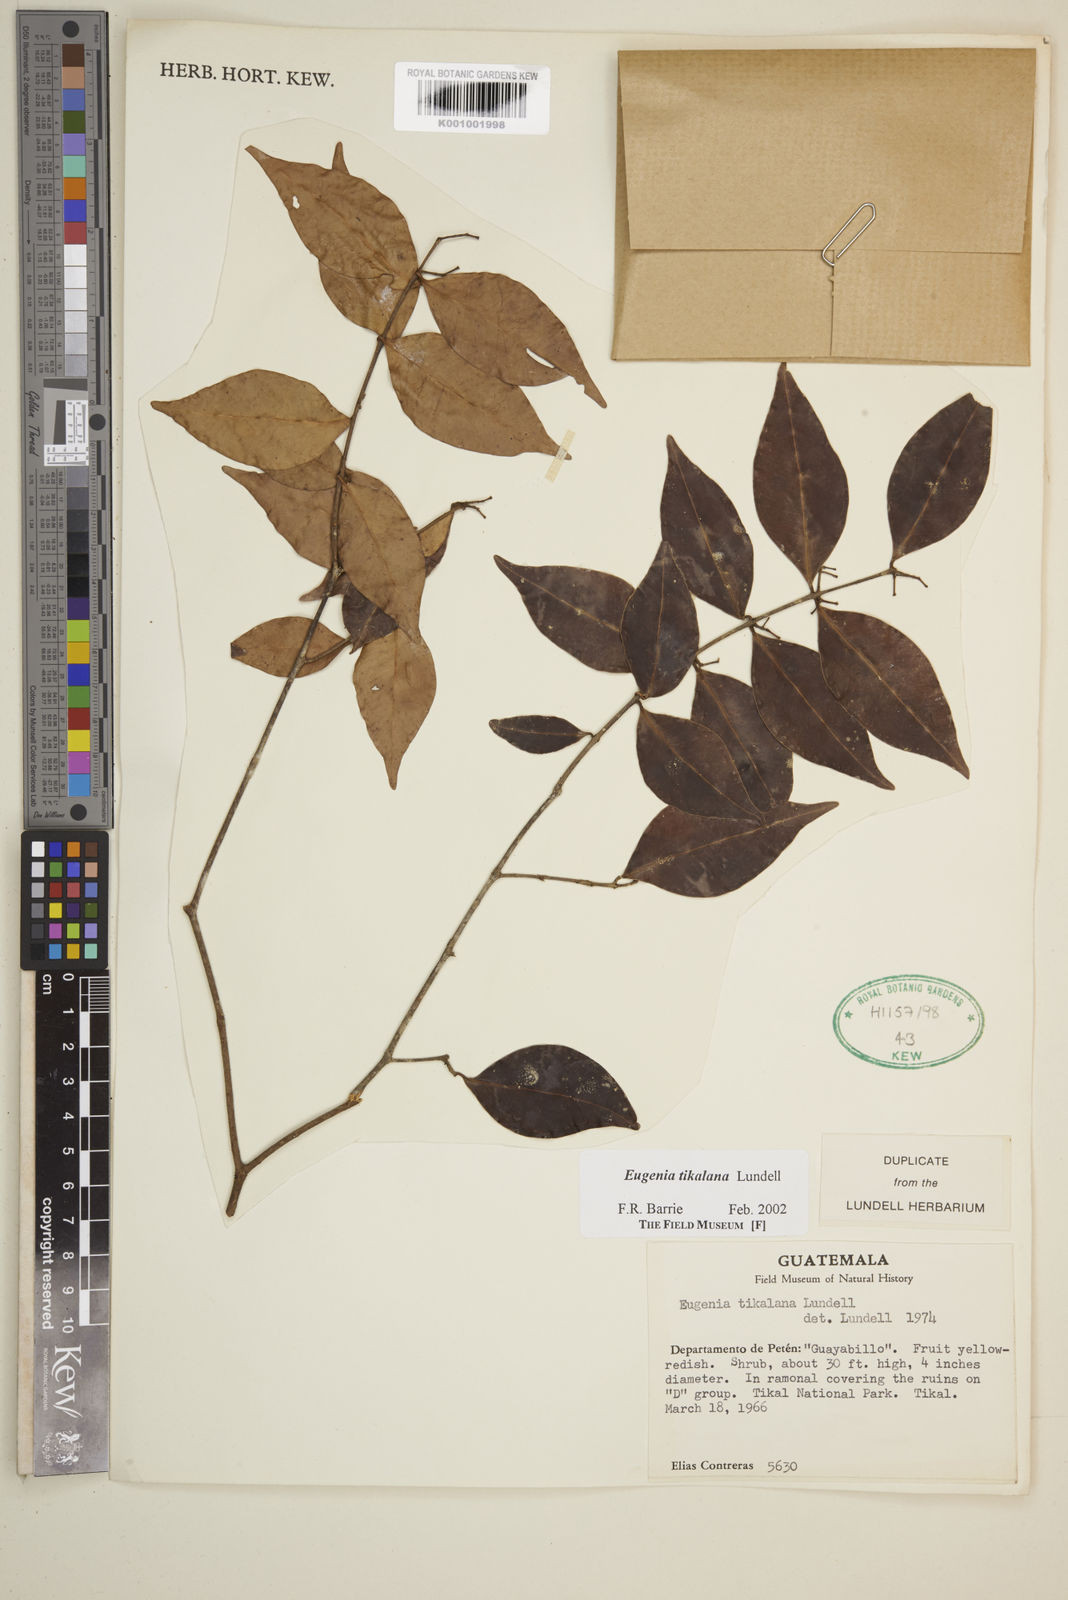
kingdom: Plantae
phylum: Tracheophyta
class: Magnoliopsida
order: Myrtales
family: Myrtaceae
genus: Eugenia
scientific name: Eugenia tikalana
